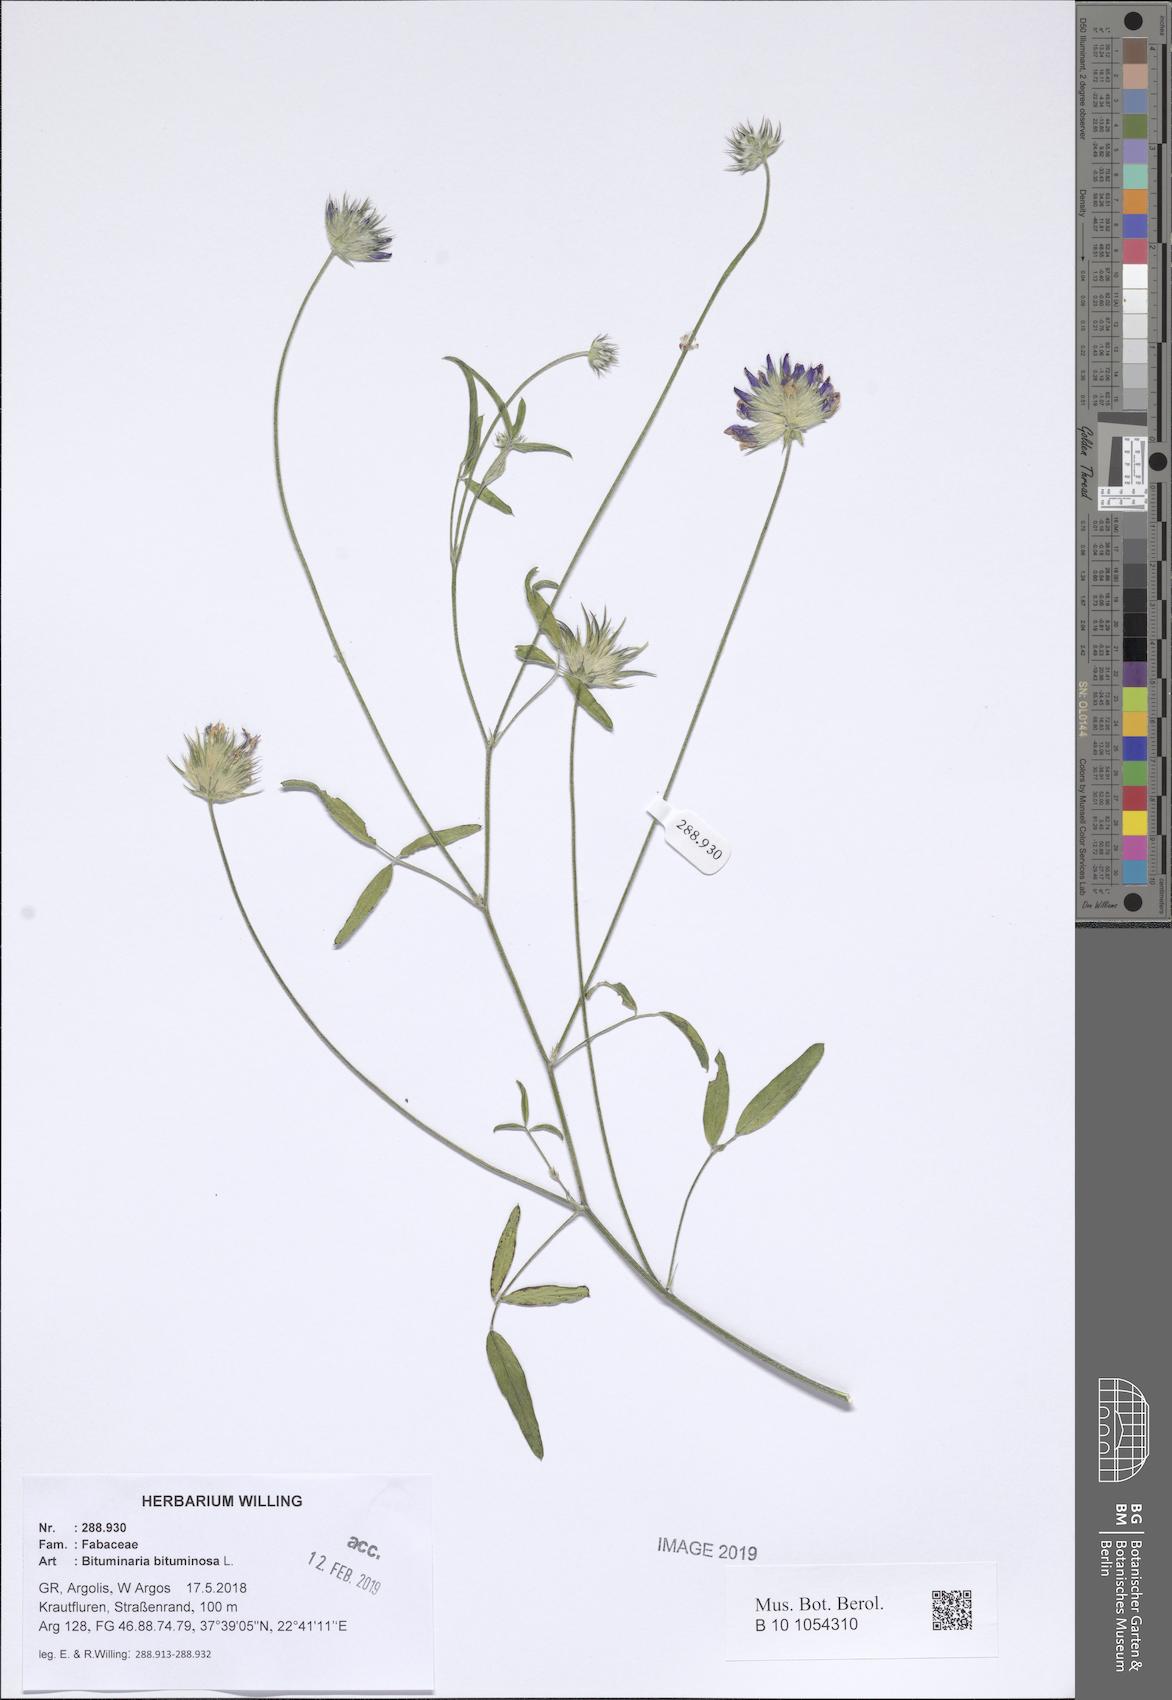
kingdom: Plantae
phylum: Tracheophyta
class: Magnoliopsida
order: Fabales
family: Fabaceae
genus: Bituminaria
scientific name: Bituminaria bituminosa
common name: Arabian pea
